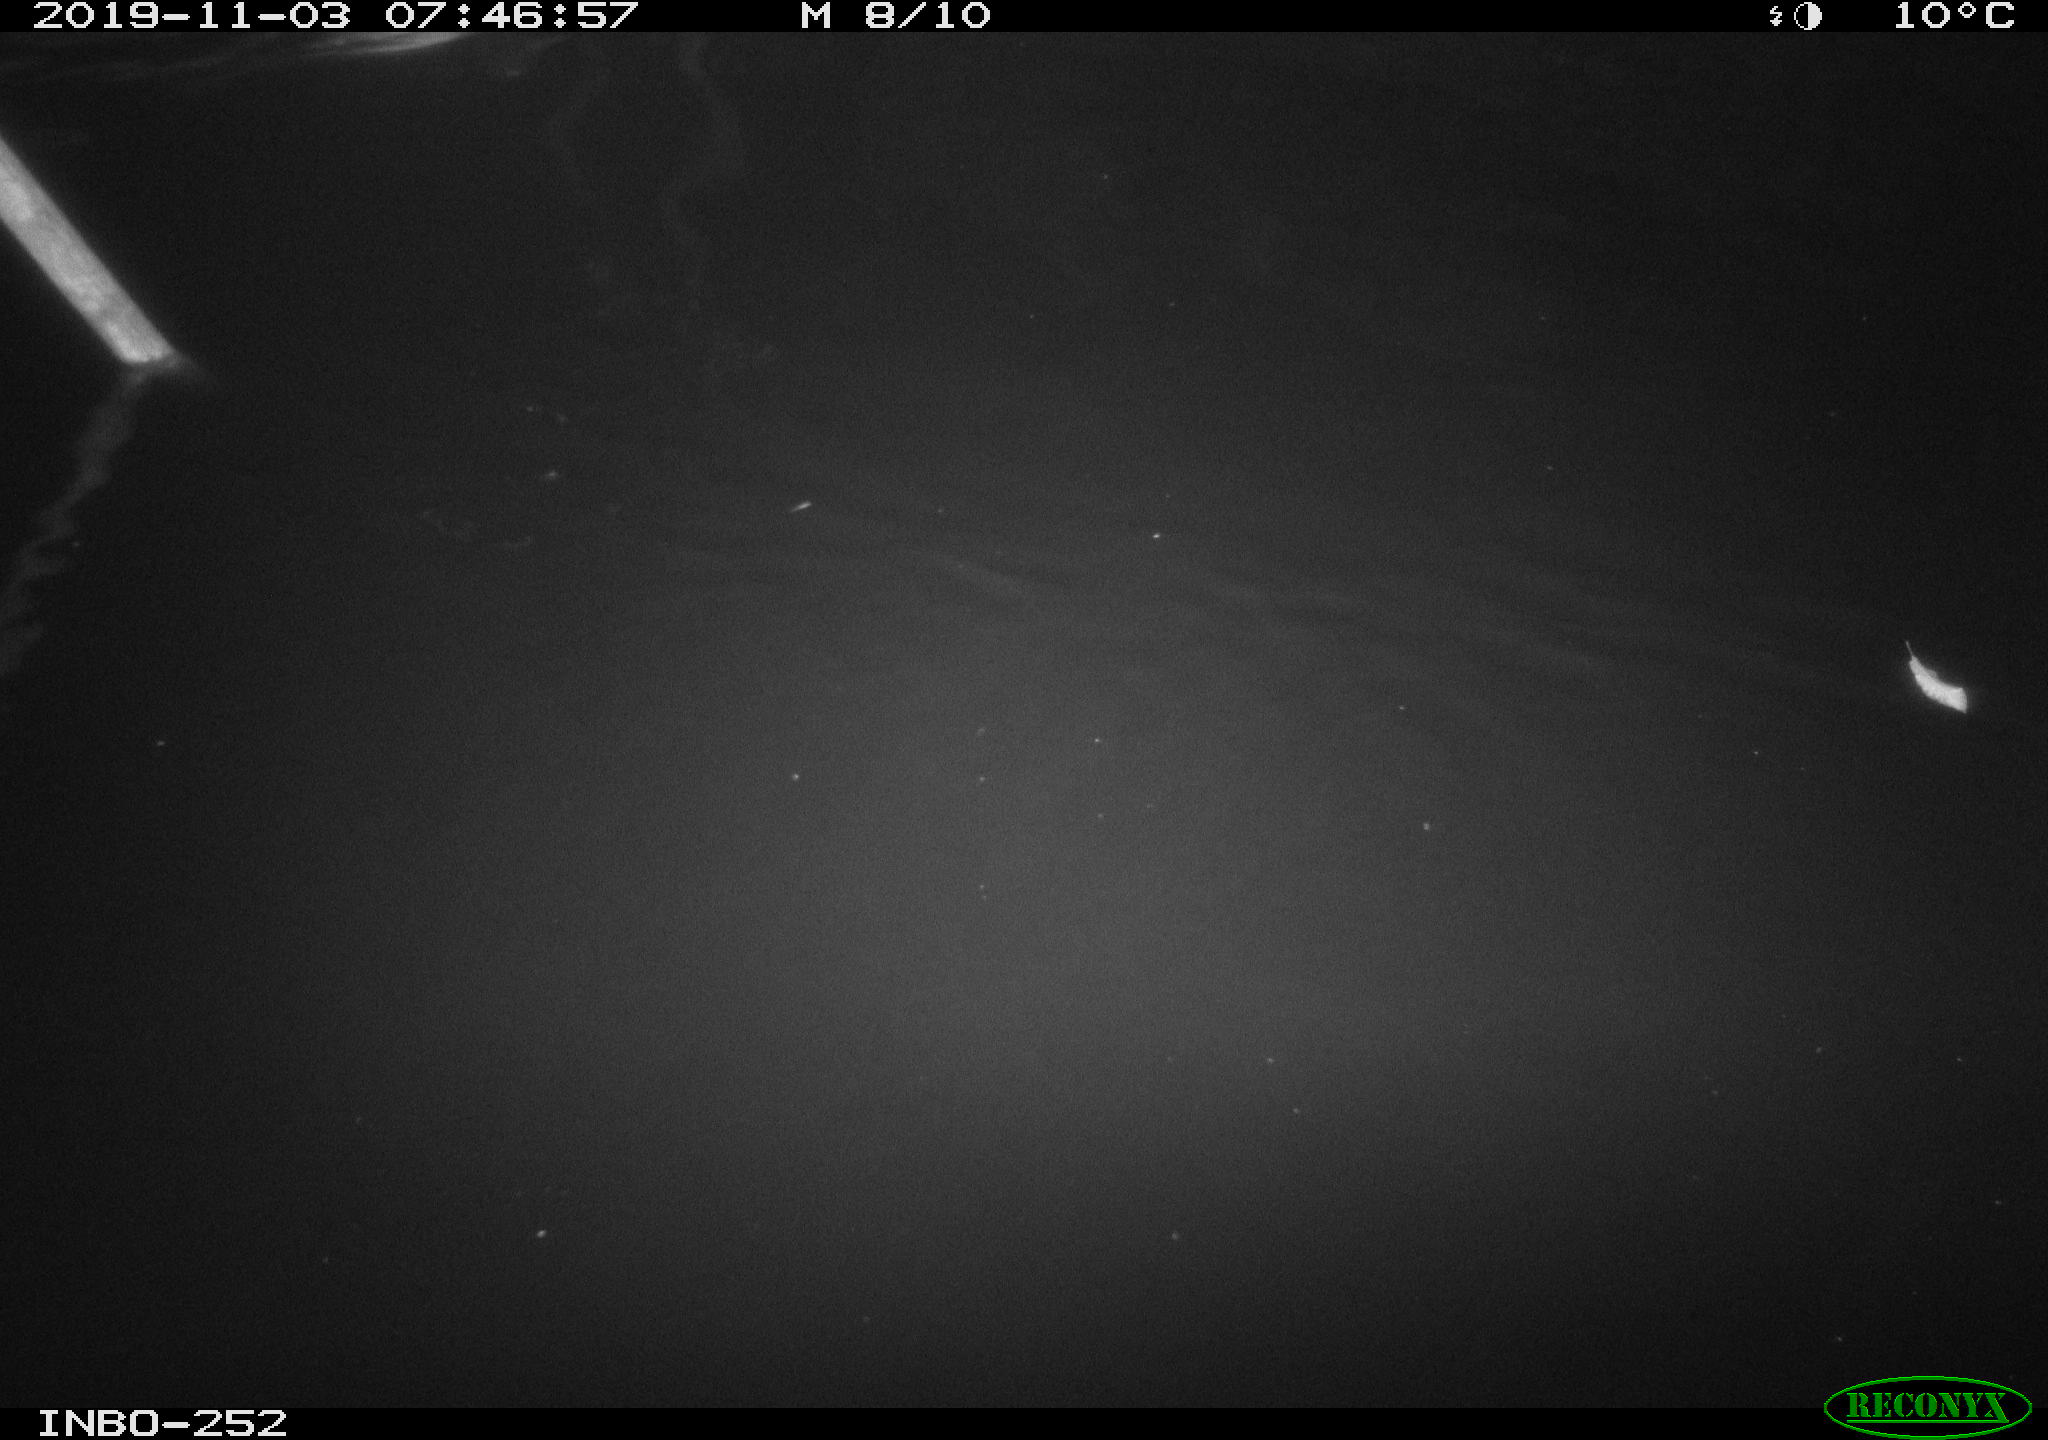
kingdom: Animalia
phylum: Chordata
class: Aves
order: Anseriformes
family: Anatidae
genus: Anas
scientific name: Anas platyrhynchos
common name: Mallard
